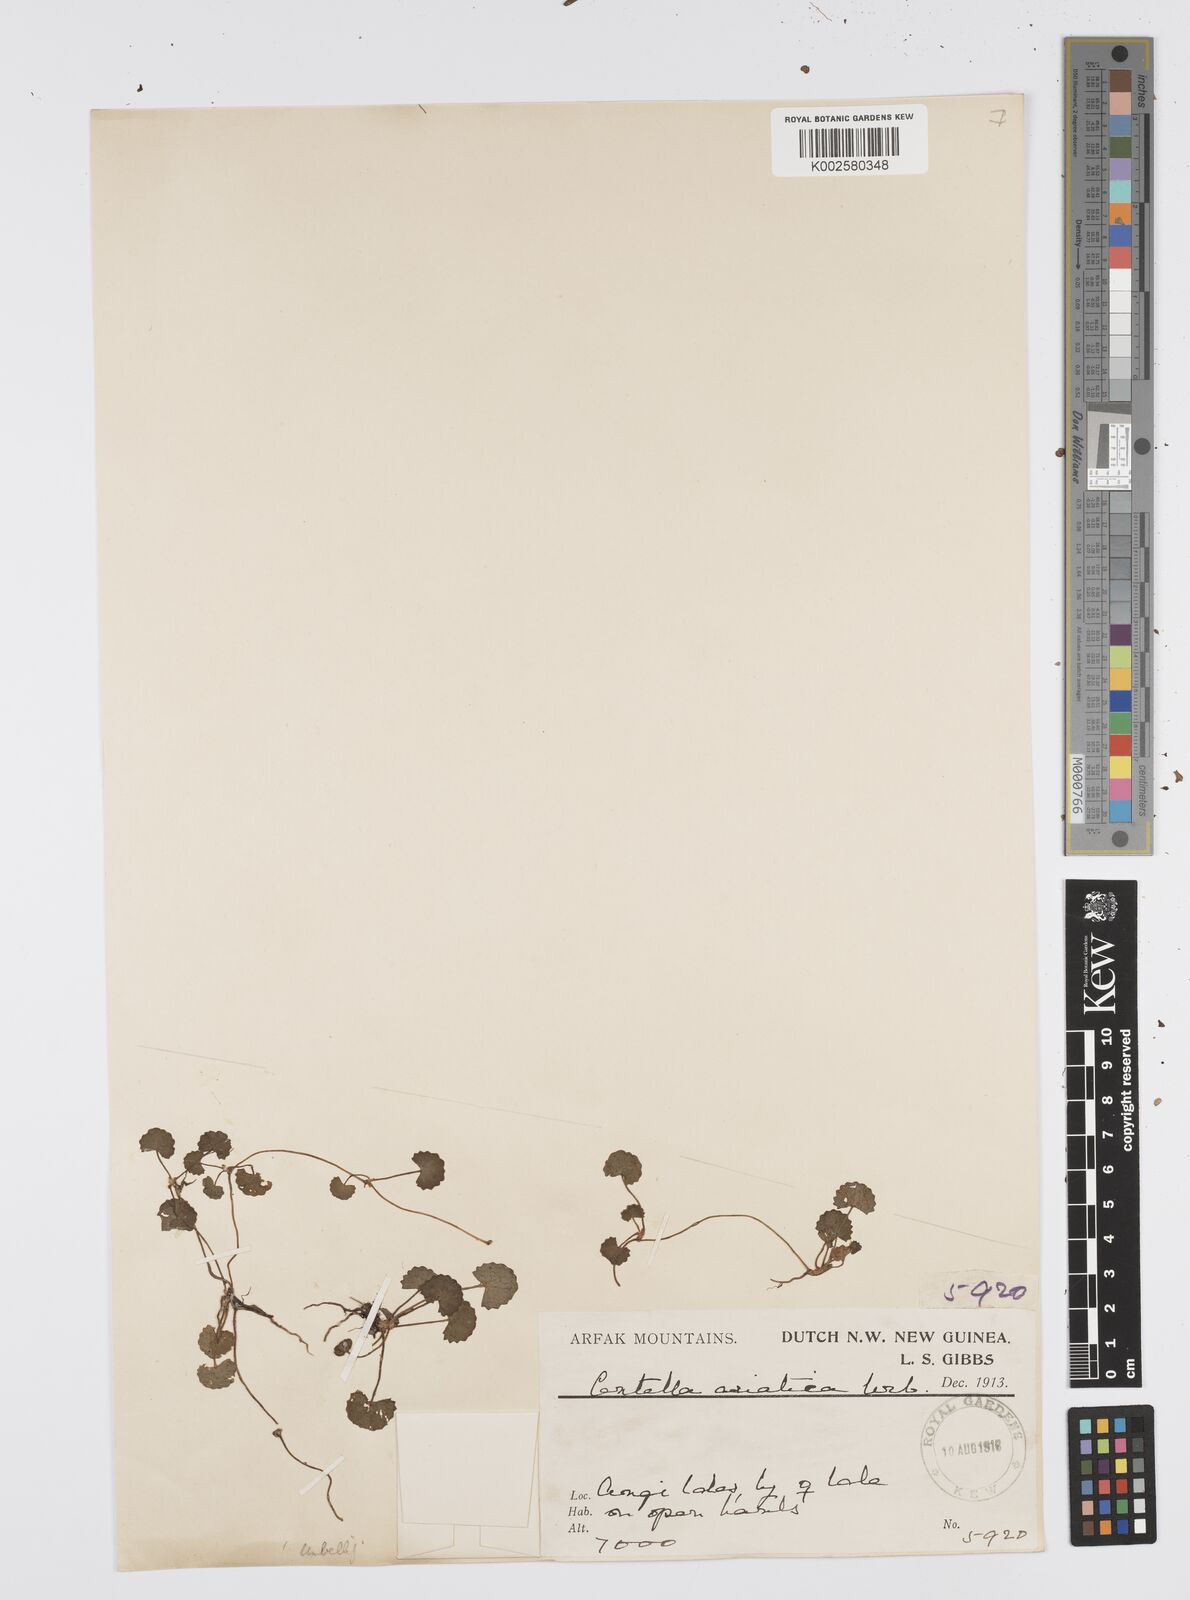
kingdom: Plantae
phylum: Tracheophyta
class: Magnoliopsida
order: Apiales
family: Apiaceae
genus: Centella
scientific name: Centella asiatica
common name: Spadeleaf
